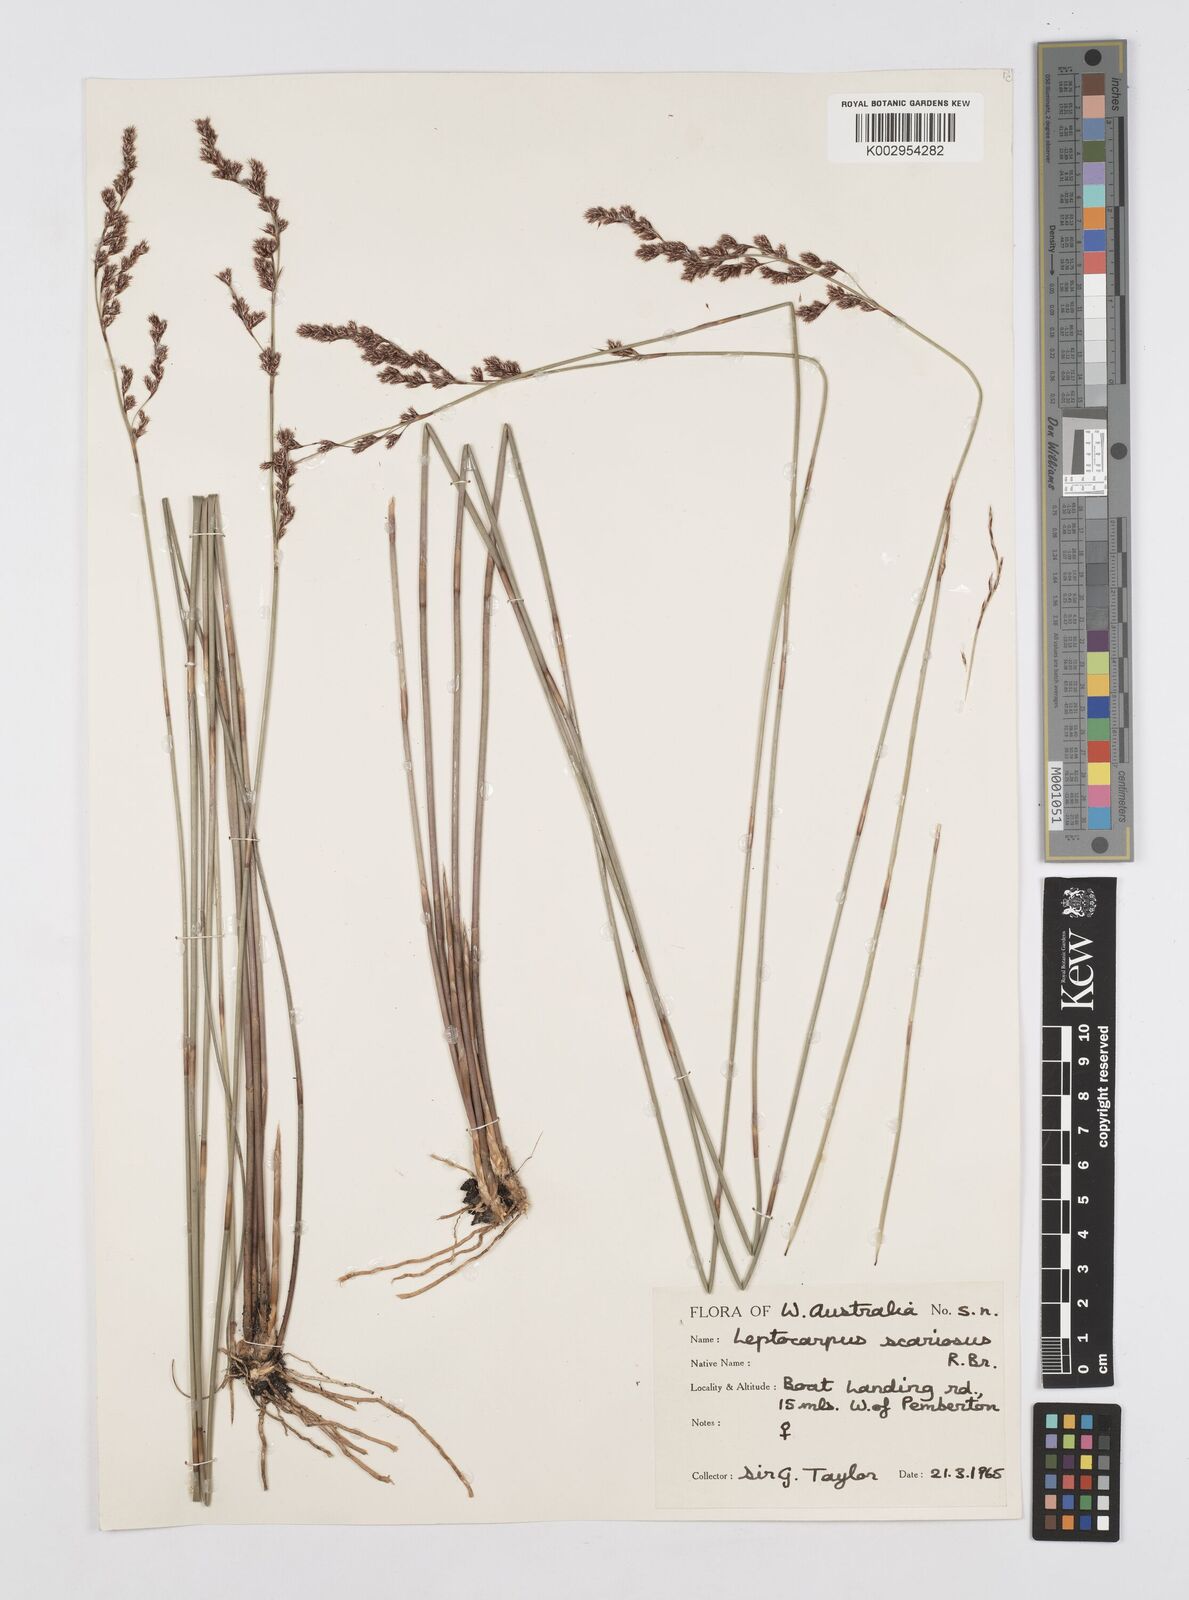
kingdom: Plantae
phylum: Tracheophyta
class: Liliopsida
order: Poales
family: Restionaceae
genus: Leptocarpus
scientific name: Leptocarpus scariosus
